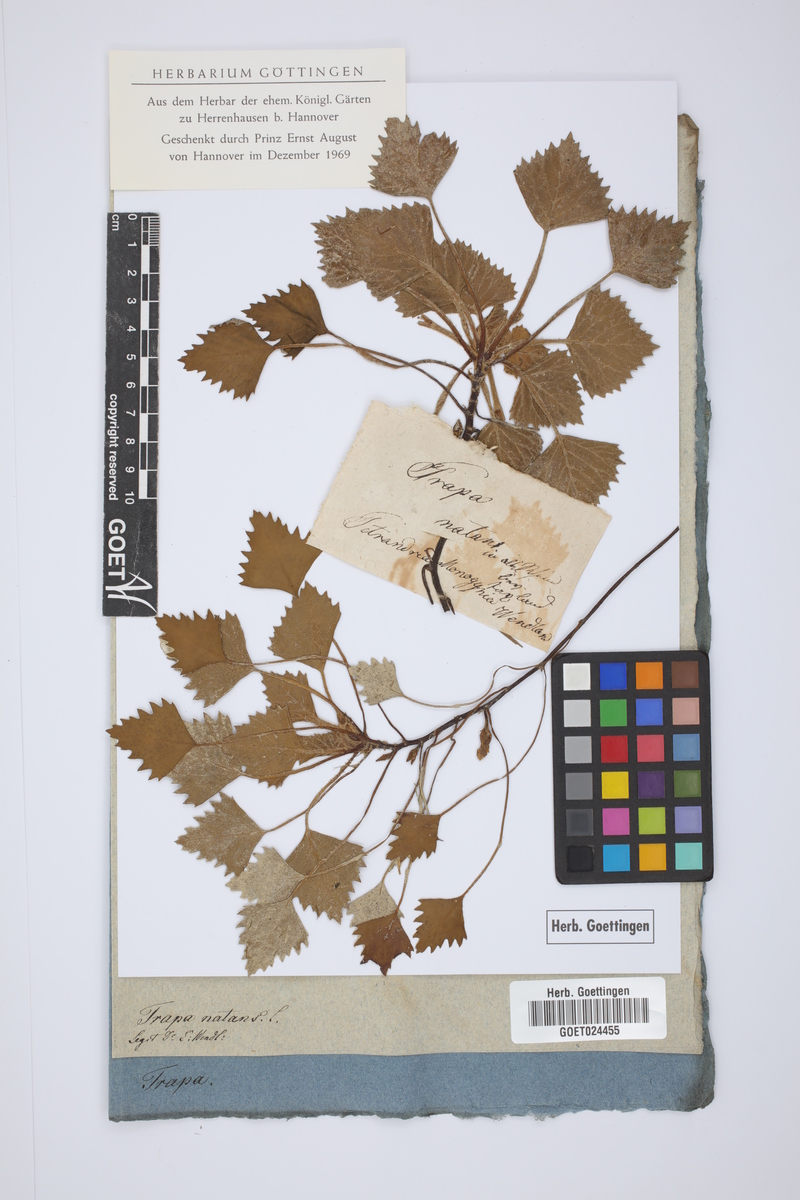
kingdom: Plantae
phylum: Tracheophyta
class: Magnoliopsida
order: Myrtales
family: Lythraceae
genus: Trapa
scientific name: Trapa natans
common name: Water chestnut
